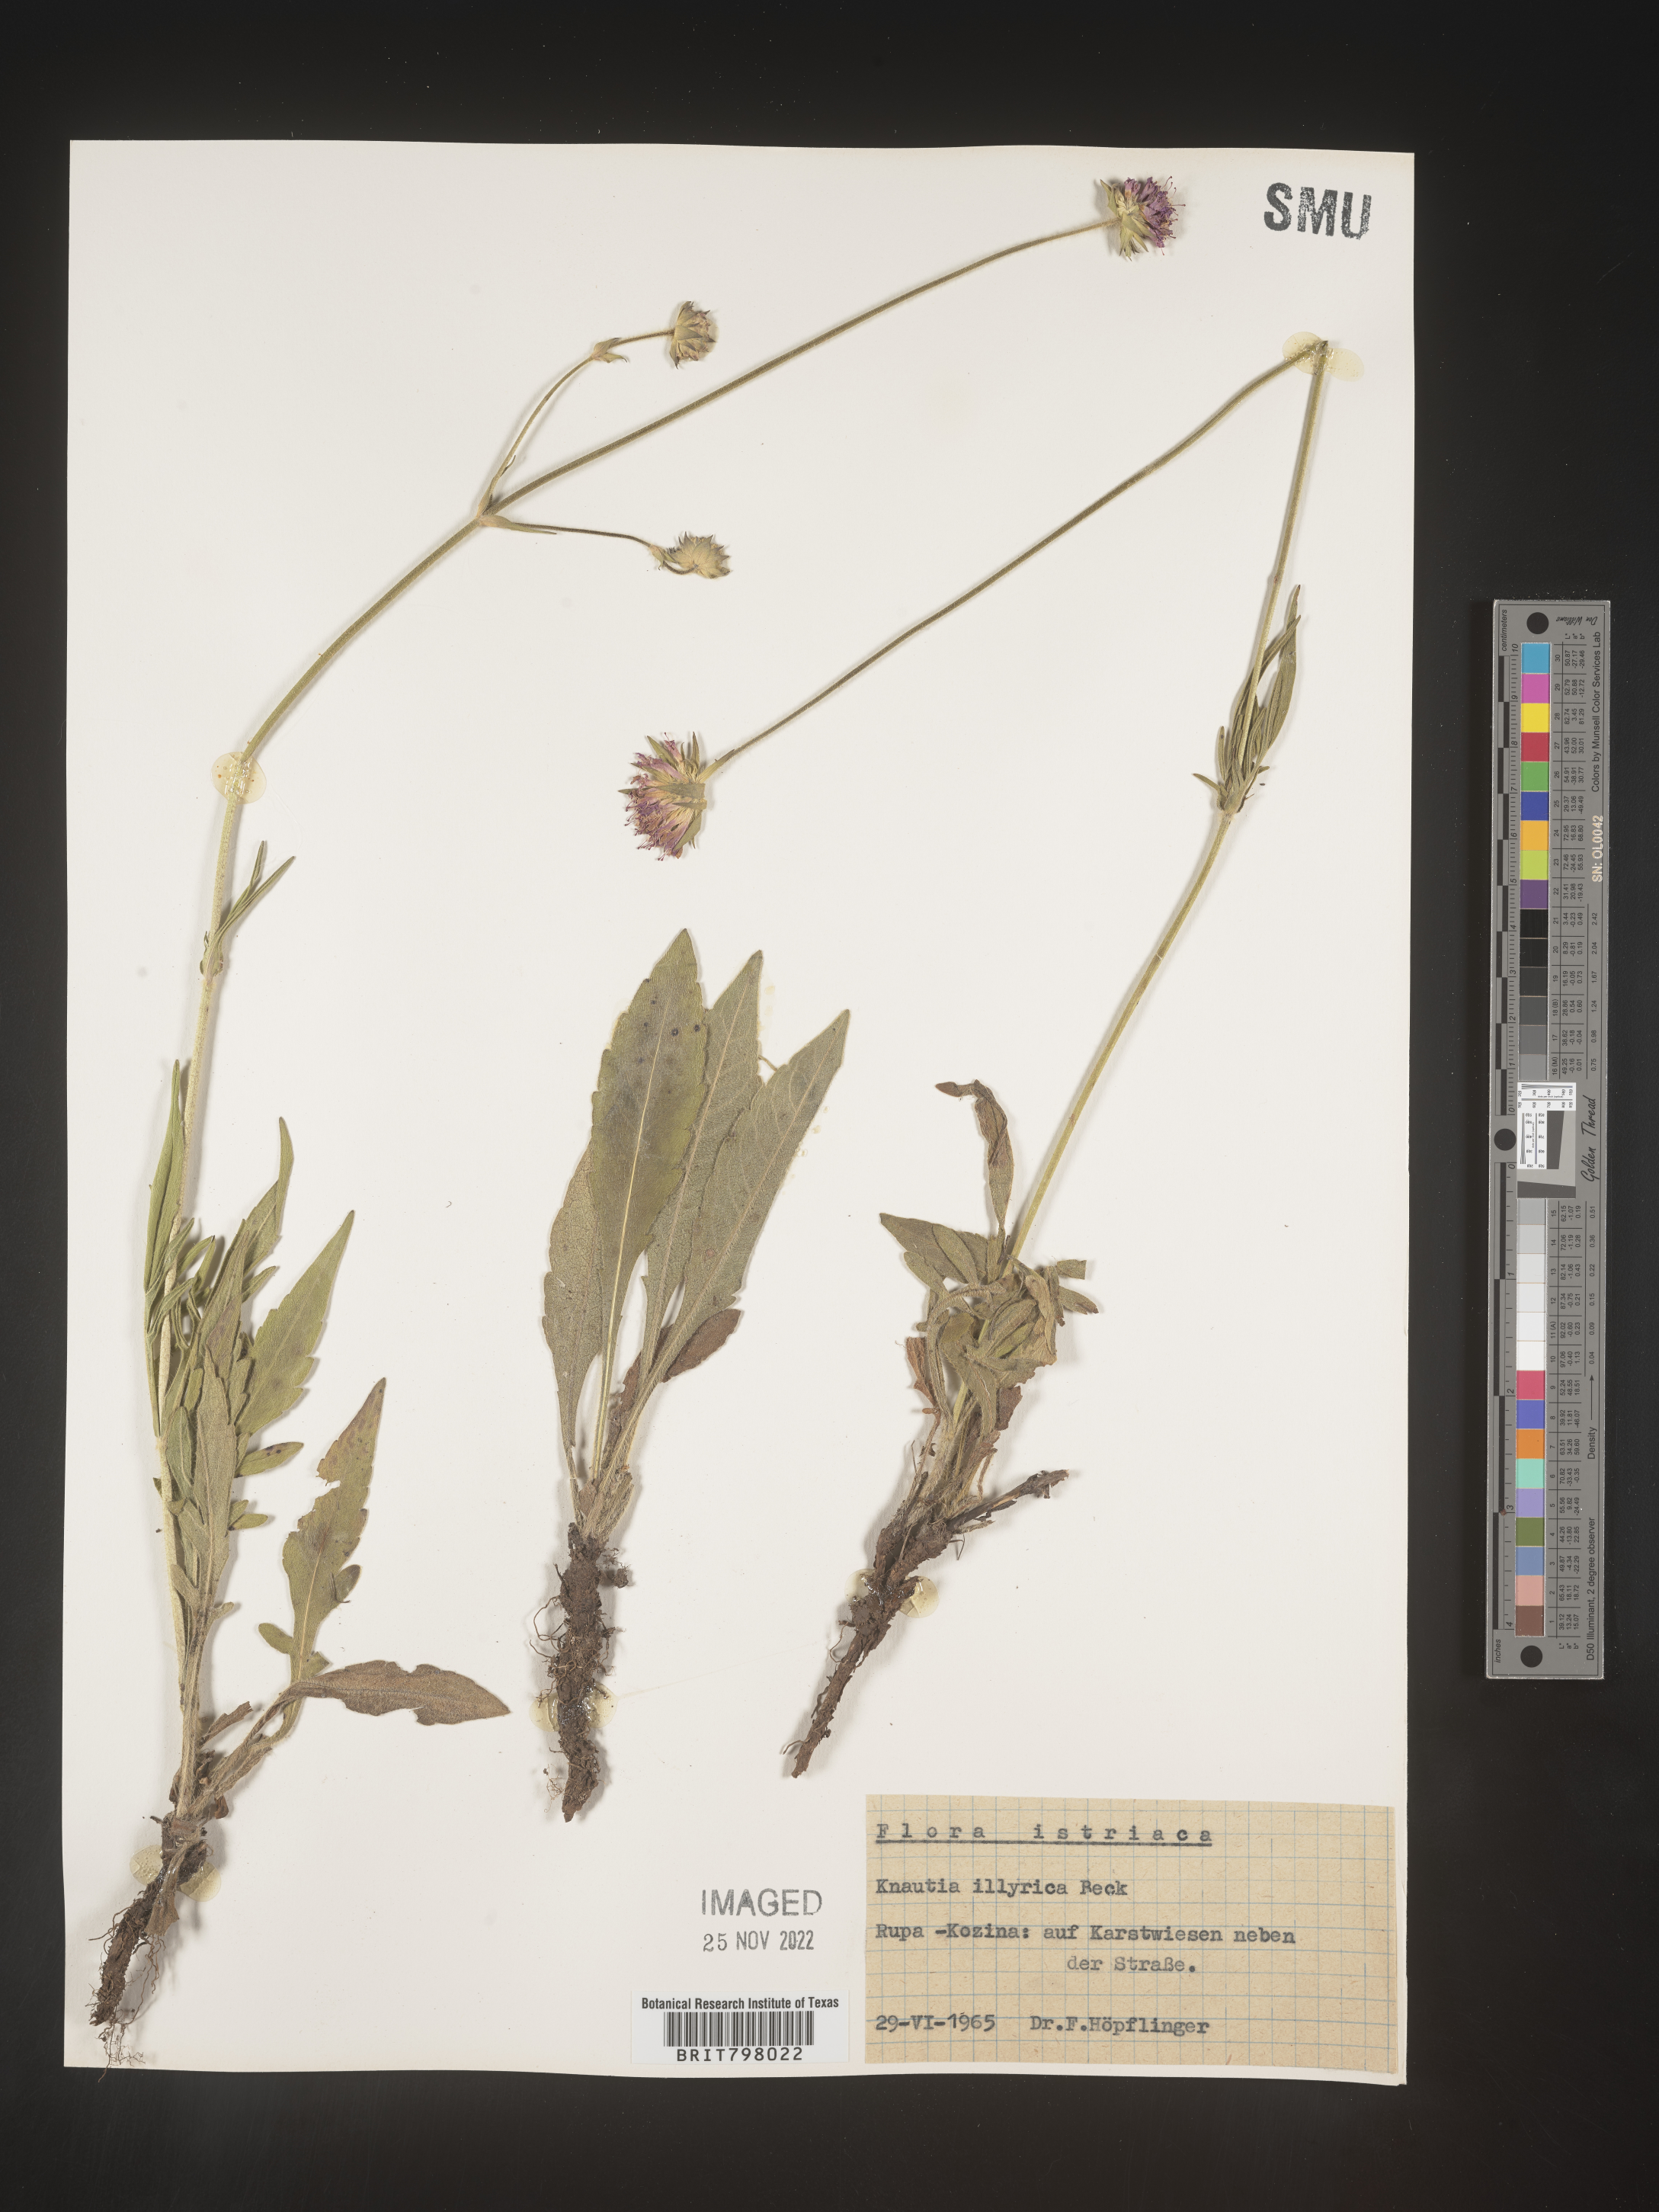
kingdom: Plantae
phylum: Tracheophyta
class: Magnoliopsida
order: Dipsacales
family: Caprifoliaceae
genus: Knautia
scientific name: Knautia
